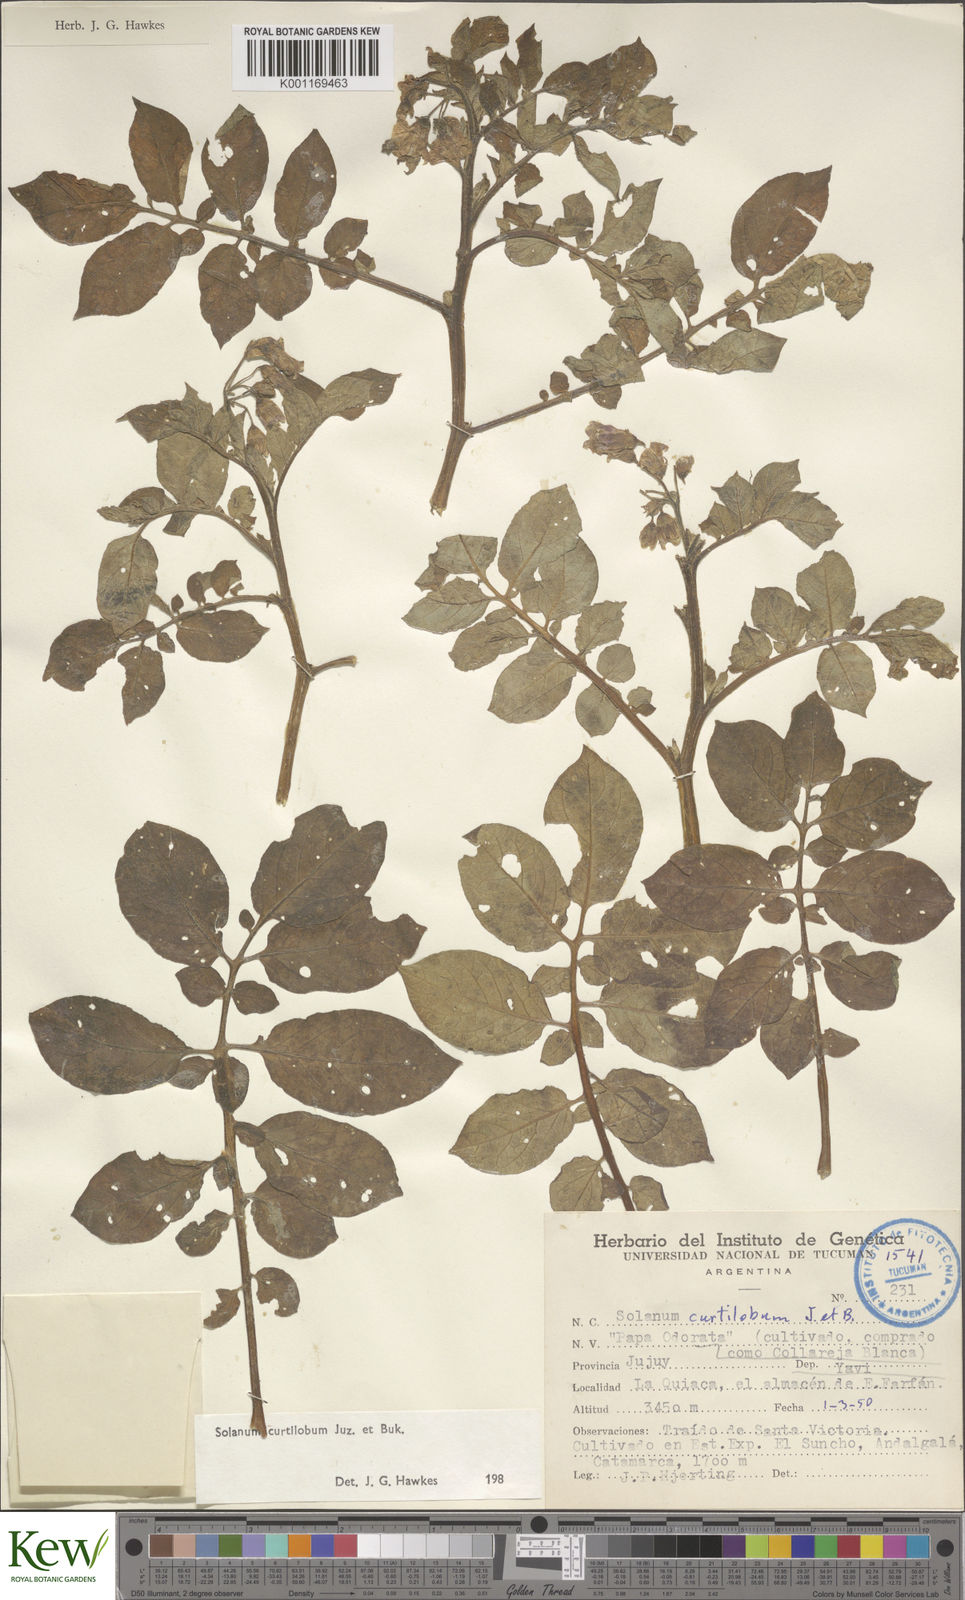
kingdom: Plantae
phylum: Tracheophyta
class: Magnoliopsida
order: Solanales
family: Solanaceae
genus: Solanum
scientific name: Solanum curtilobum
